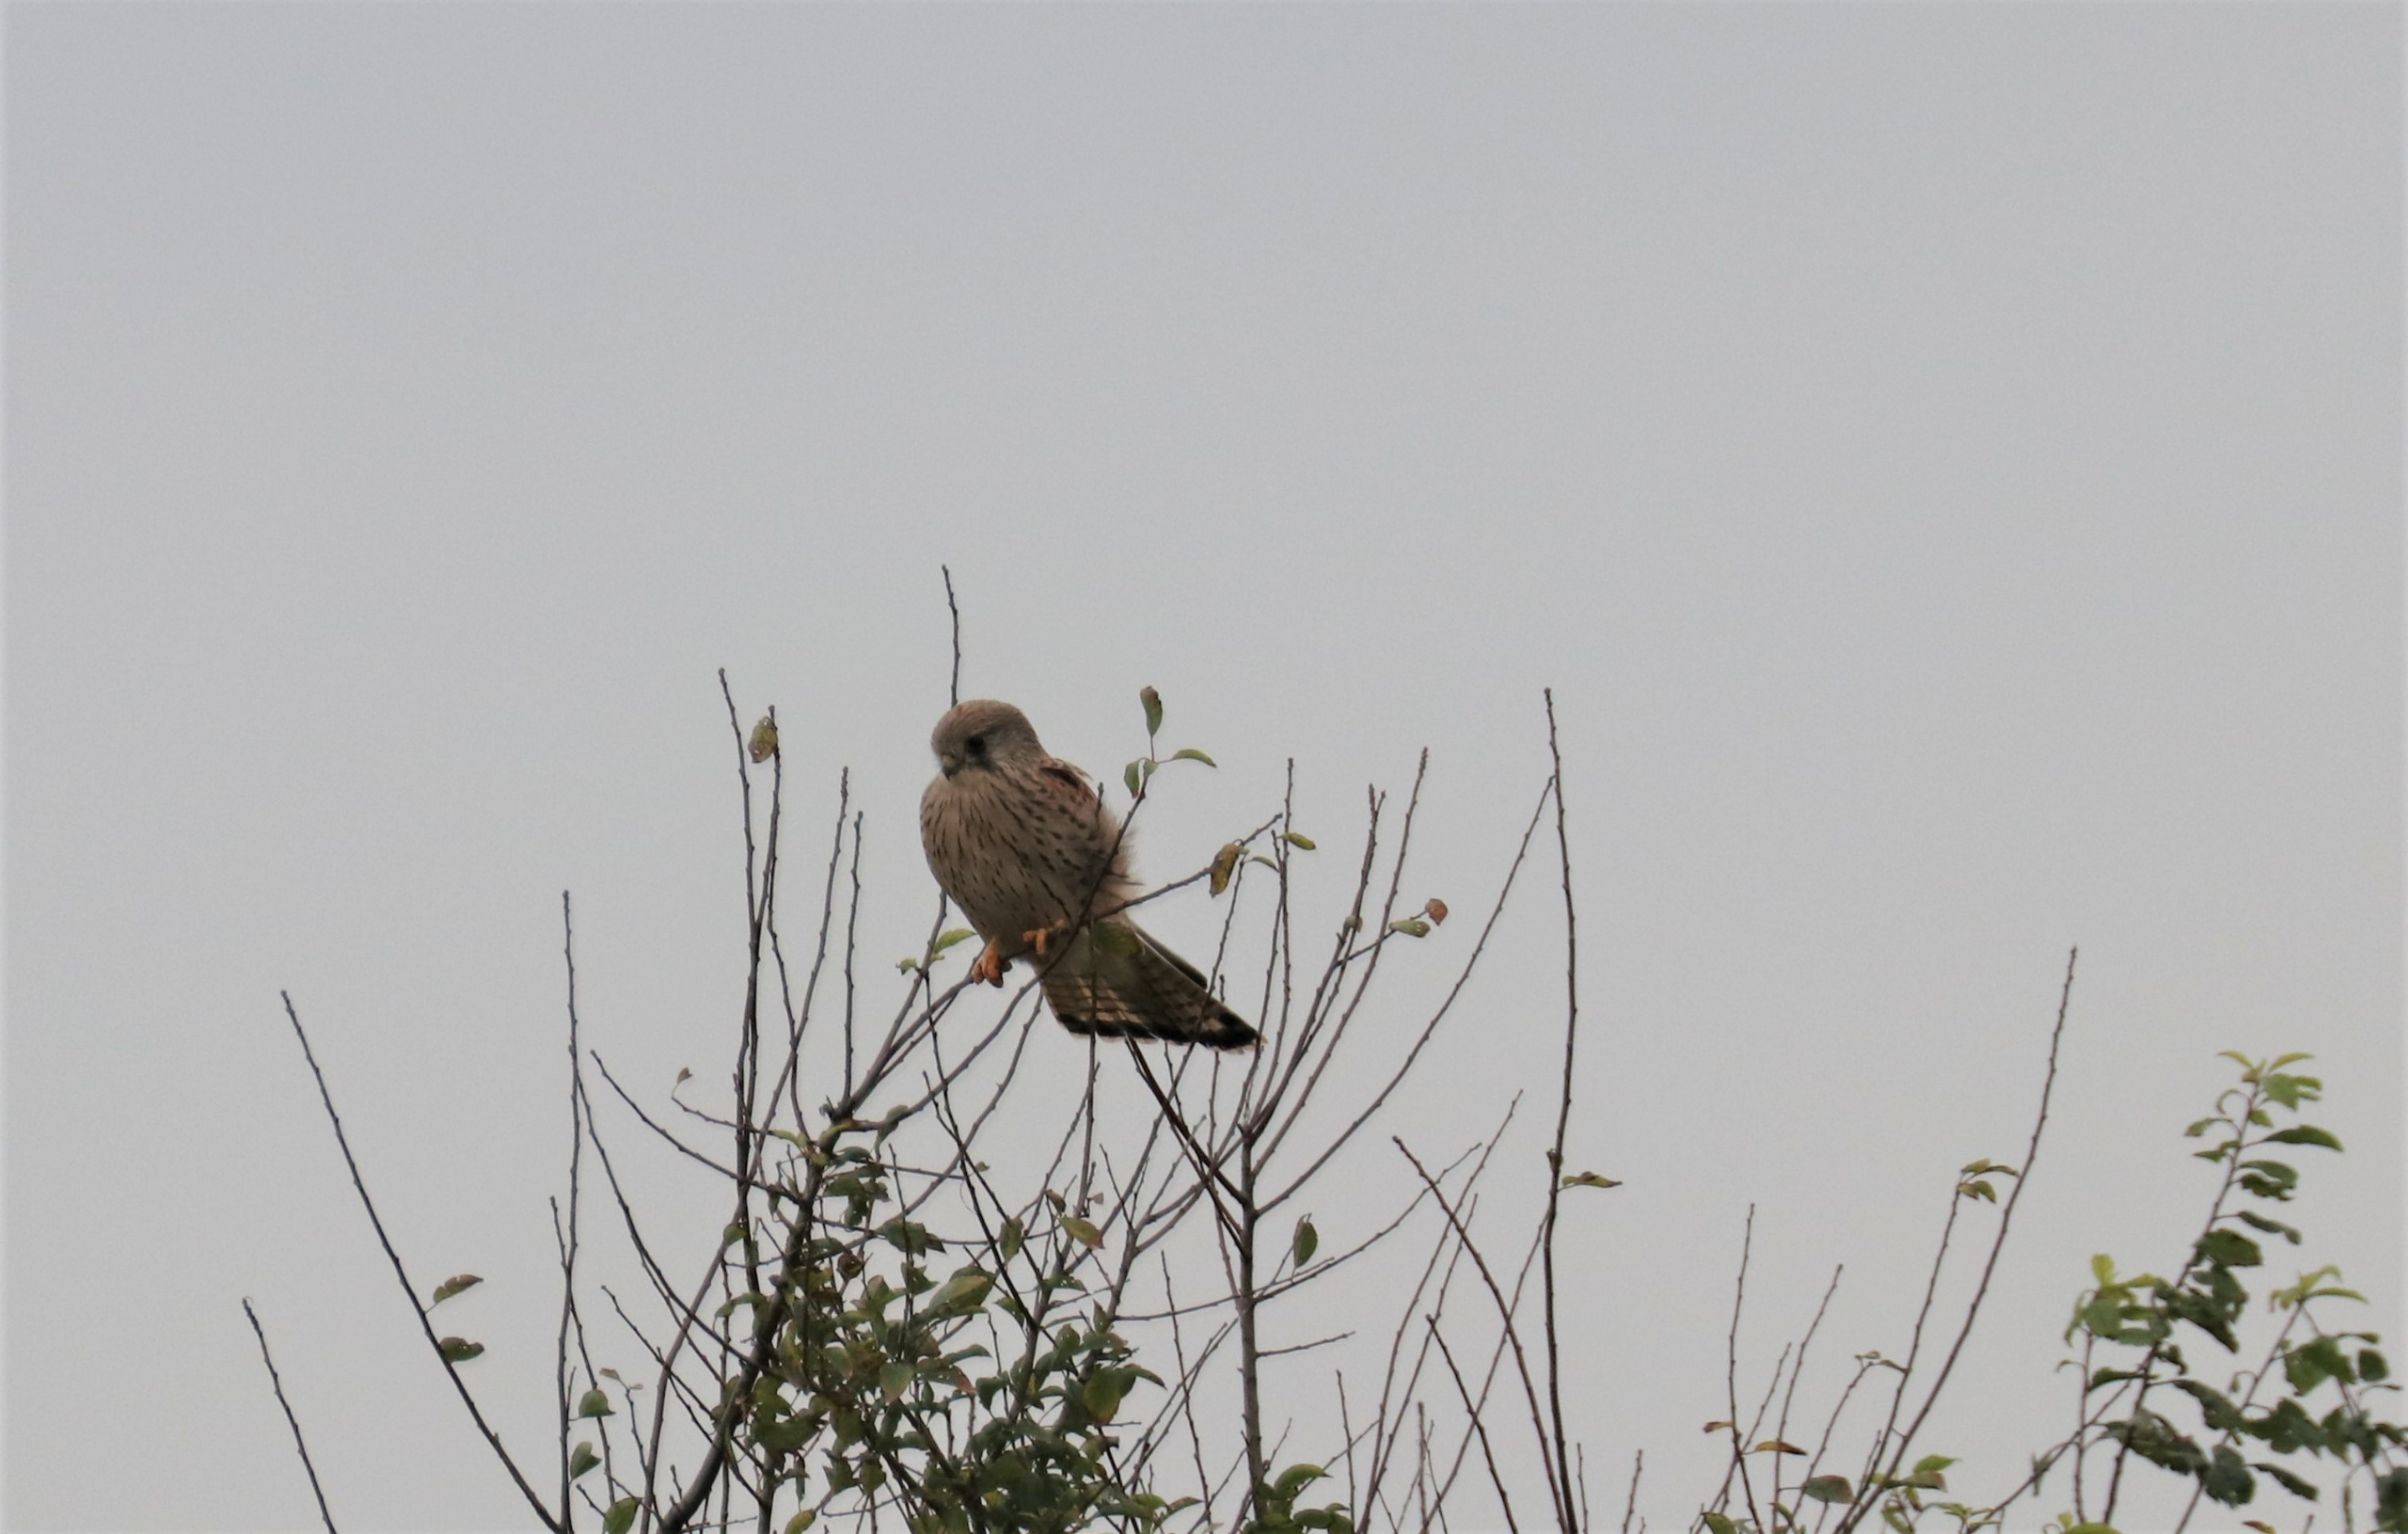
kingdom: Animalia
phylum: Chordata
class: Aves
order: Falconiformes
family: Falconidae
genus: Falco
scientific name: Falco tinnunculus
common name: Tårnfalk
